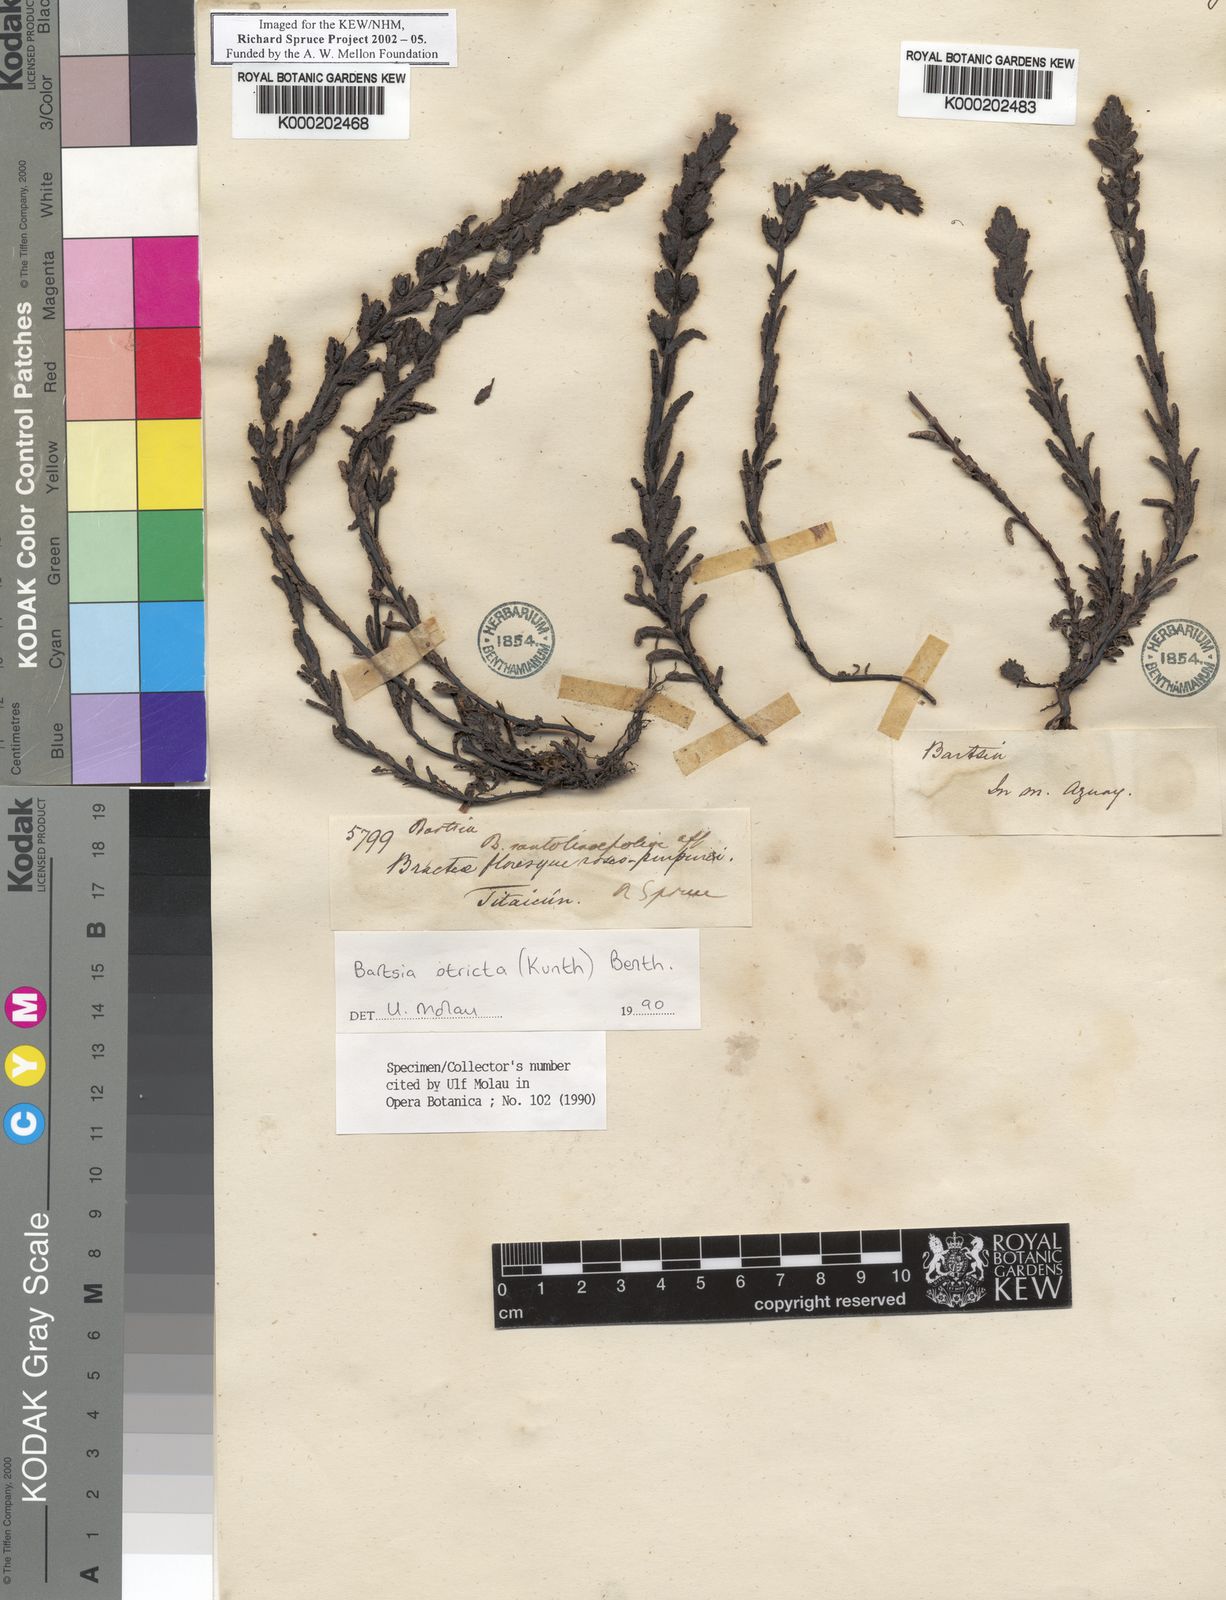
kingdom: Plantae
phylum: Tracheophyta
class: Magnoliopsida
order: Lamiales
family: Orobanchaceae
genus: Neobartsia
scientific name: Neobartsia stricta
